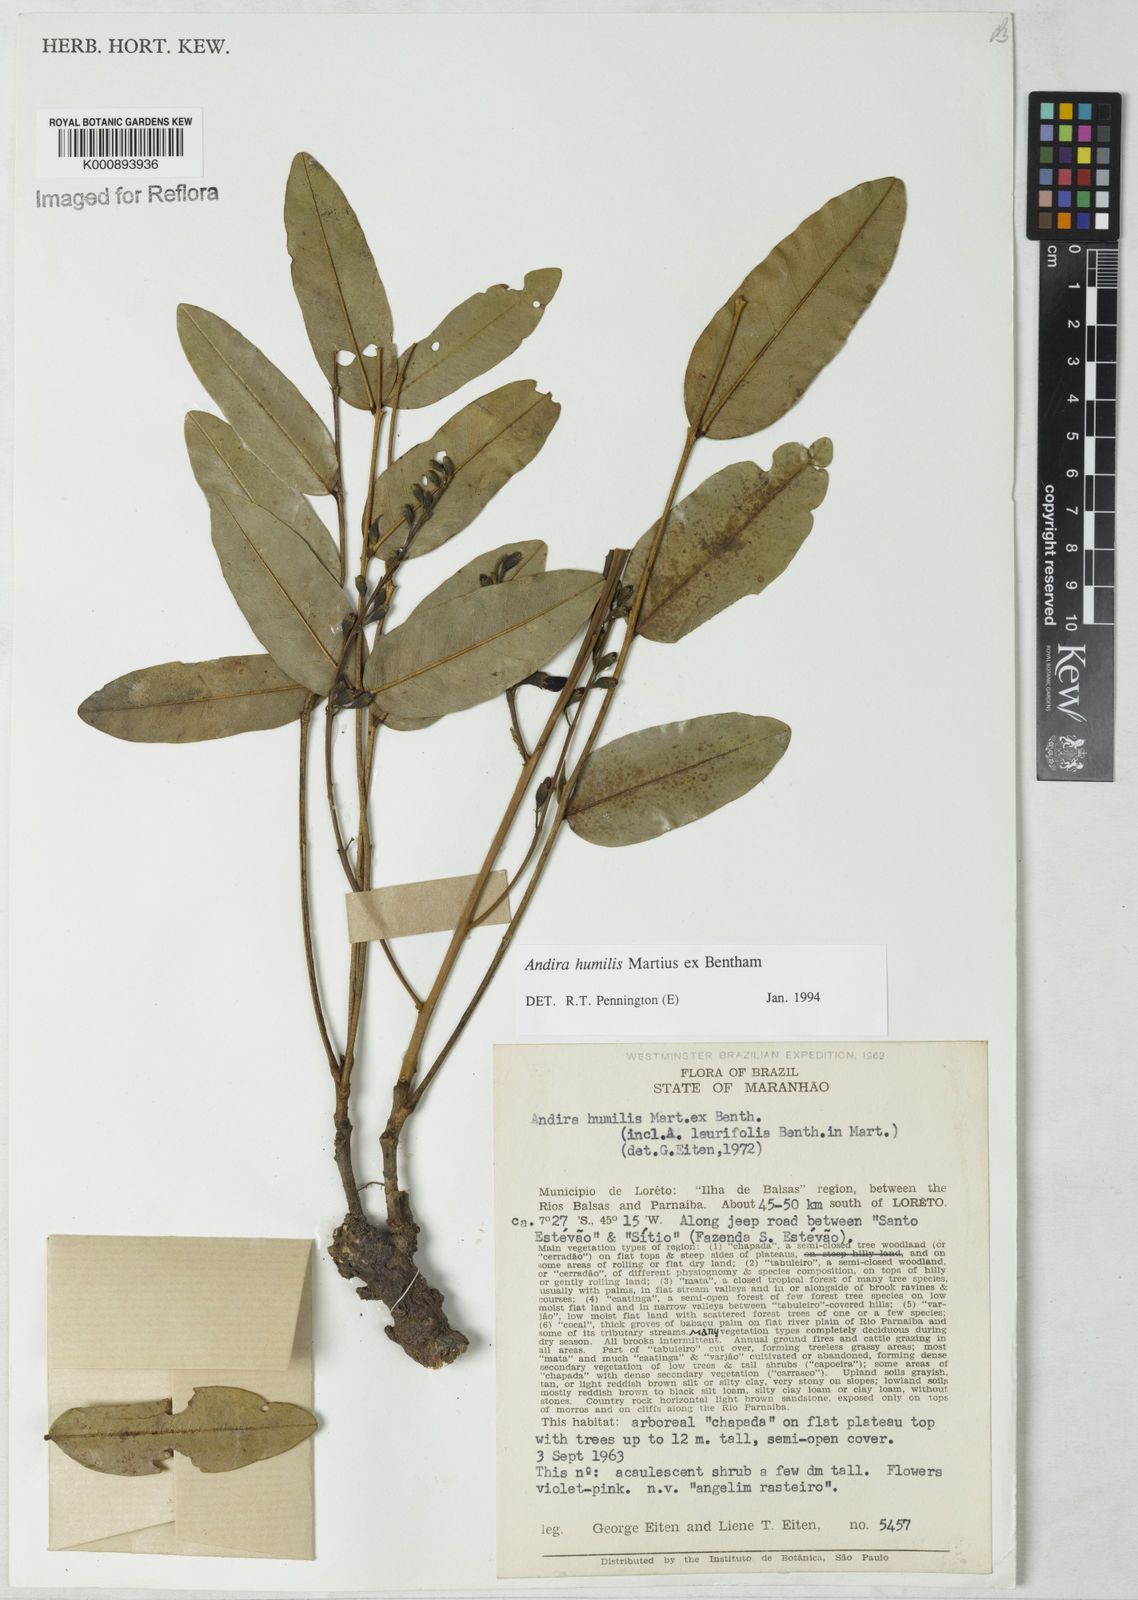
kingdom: Plantae
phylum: Tracheophyta
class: Magnoliopsida
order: Fabales
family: Fabaceae
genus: Andira
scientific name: Andira humilis
